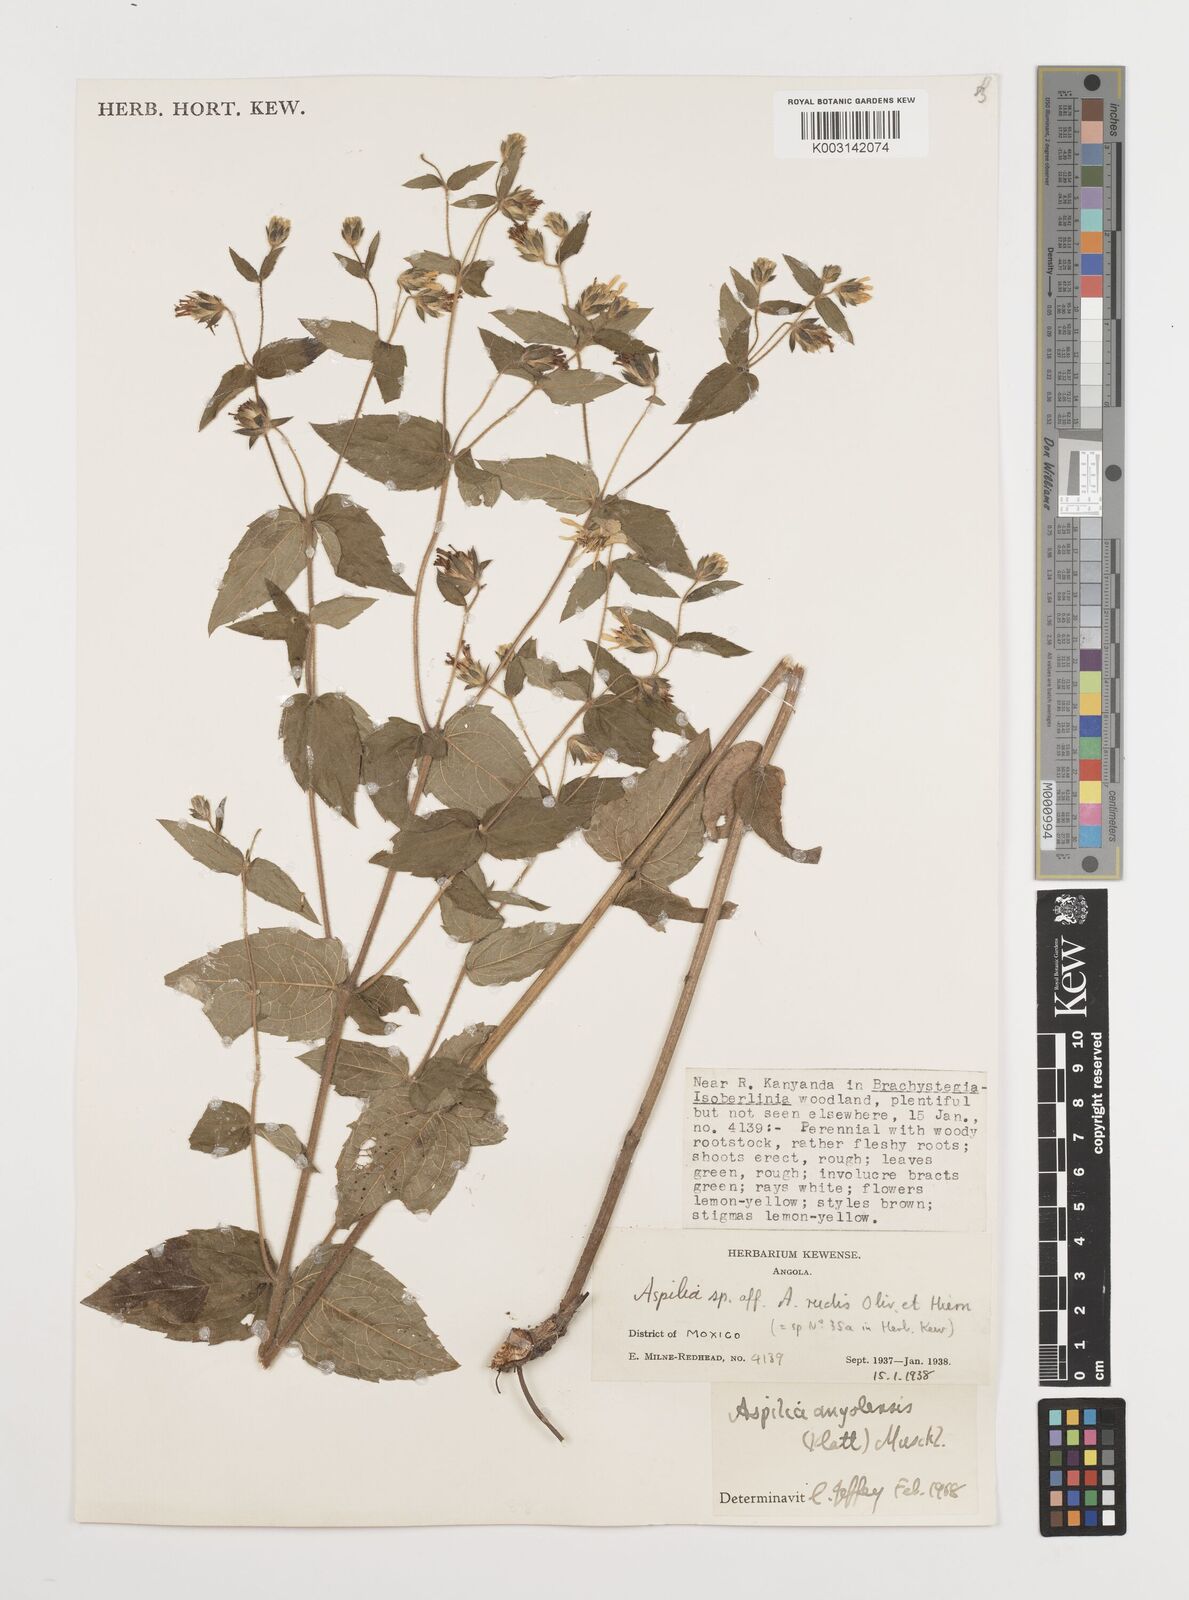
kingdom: Plantae
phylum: Tracheophyta
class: Magnoliopsida
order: Asterales
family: Asteraceae
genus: Aspilia
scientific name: Aspilia angolensis
